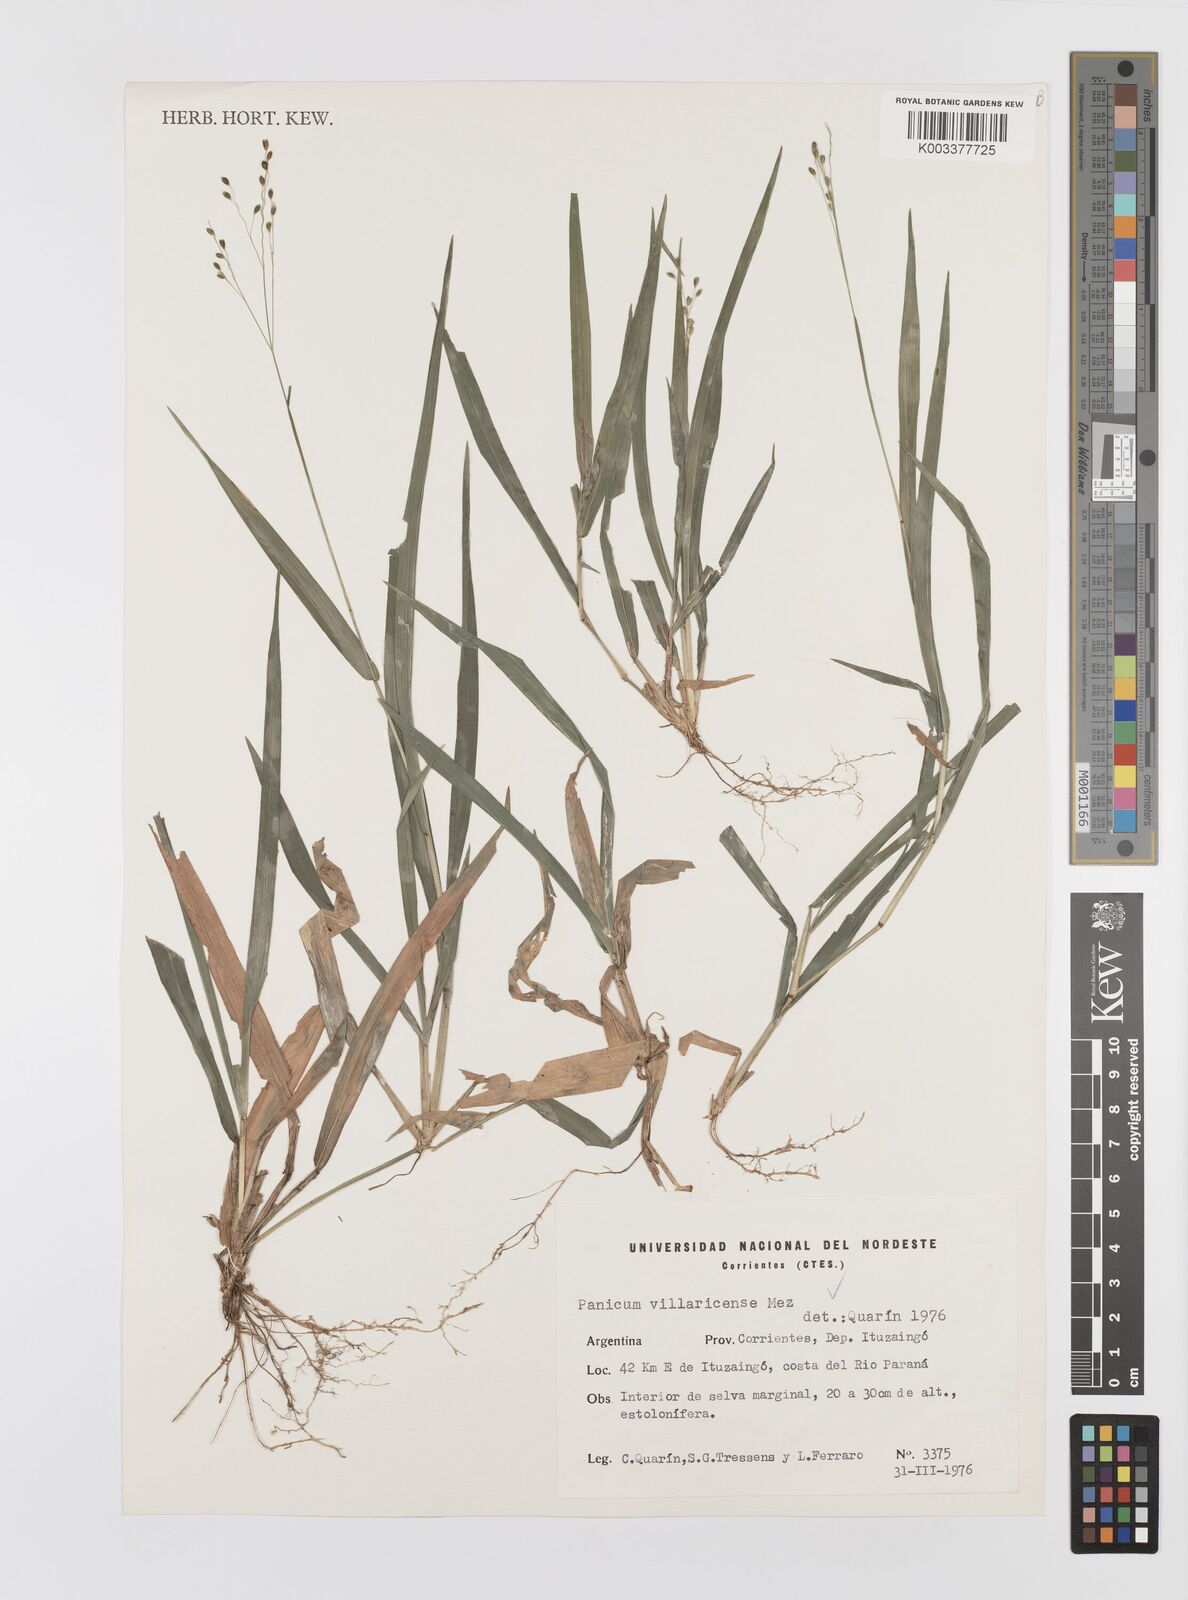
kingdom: Plantae
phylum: Tracheophyta
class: Liliopsida
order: Poales
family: Poaceae
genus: Homolepis
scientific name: Homolepis villaricensis
